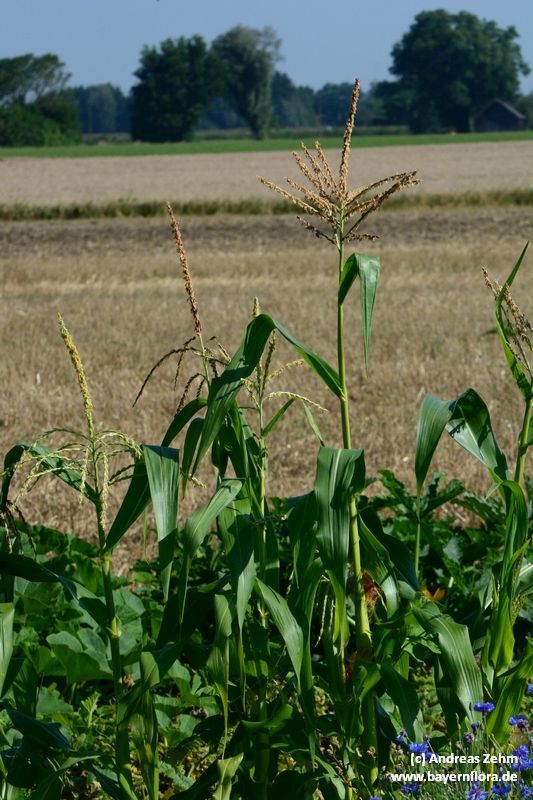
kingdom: Plantae
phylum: Tracheophyta
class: Liliopsida
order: Poales
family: Poaceae
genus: Zea
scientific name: Zea mays
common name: Maize
